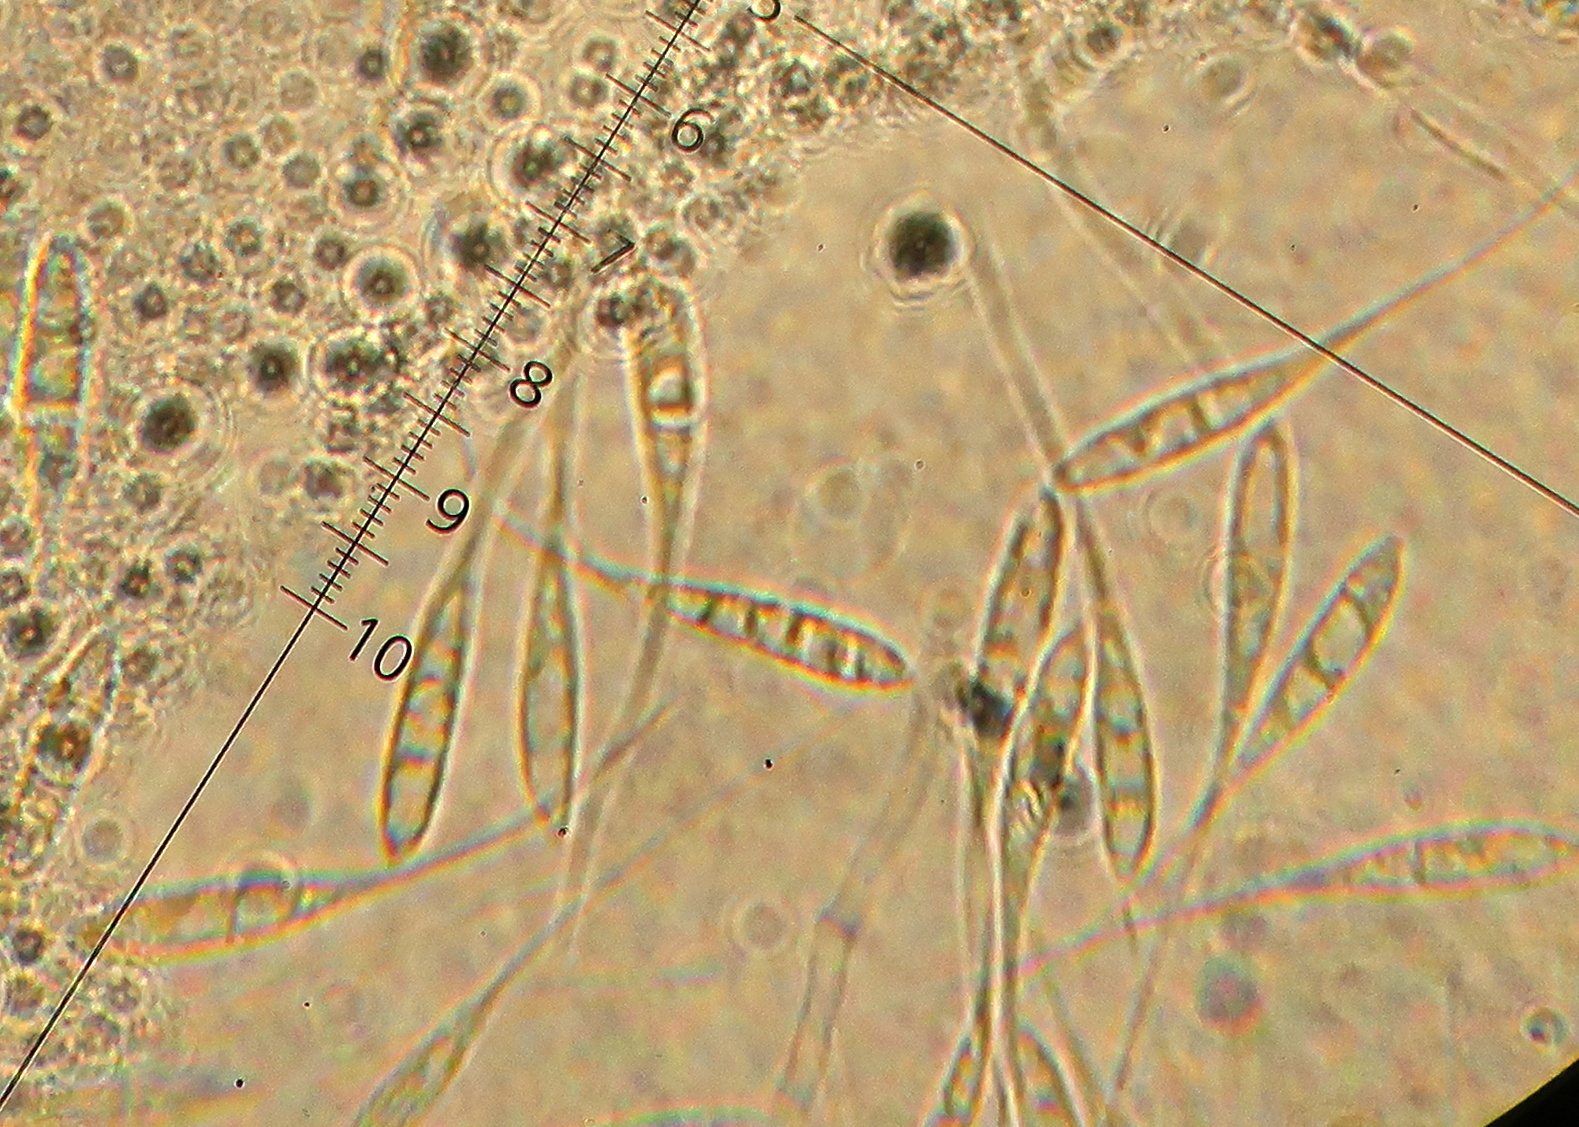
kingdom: Fungi
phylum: Ascomycota
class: Sordariomycetes
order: Amphisphaeriales
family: Amphisphaeriaceae
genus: Ceriospora
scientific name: Ceriospora polygonacearum
